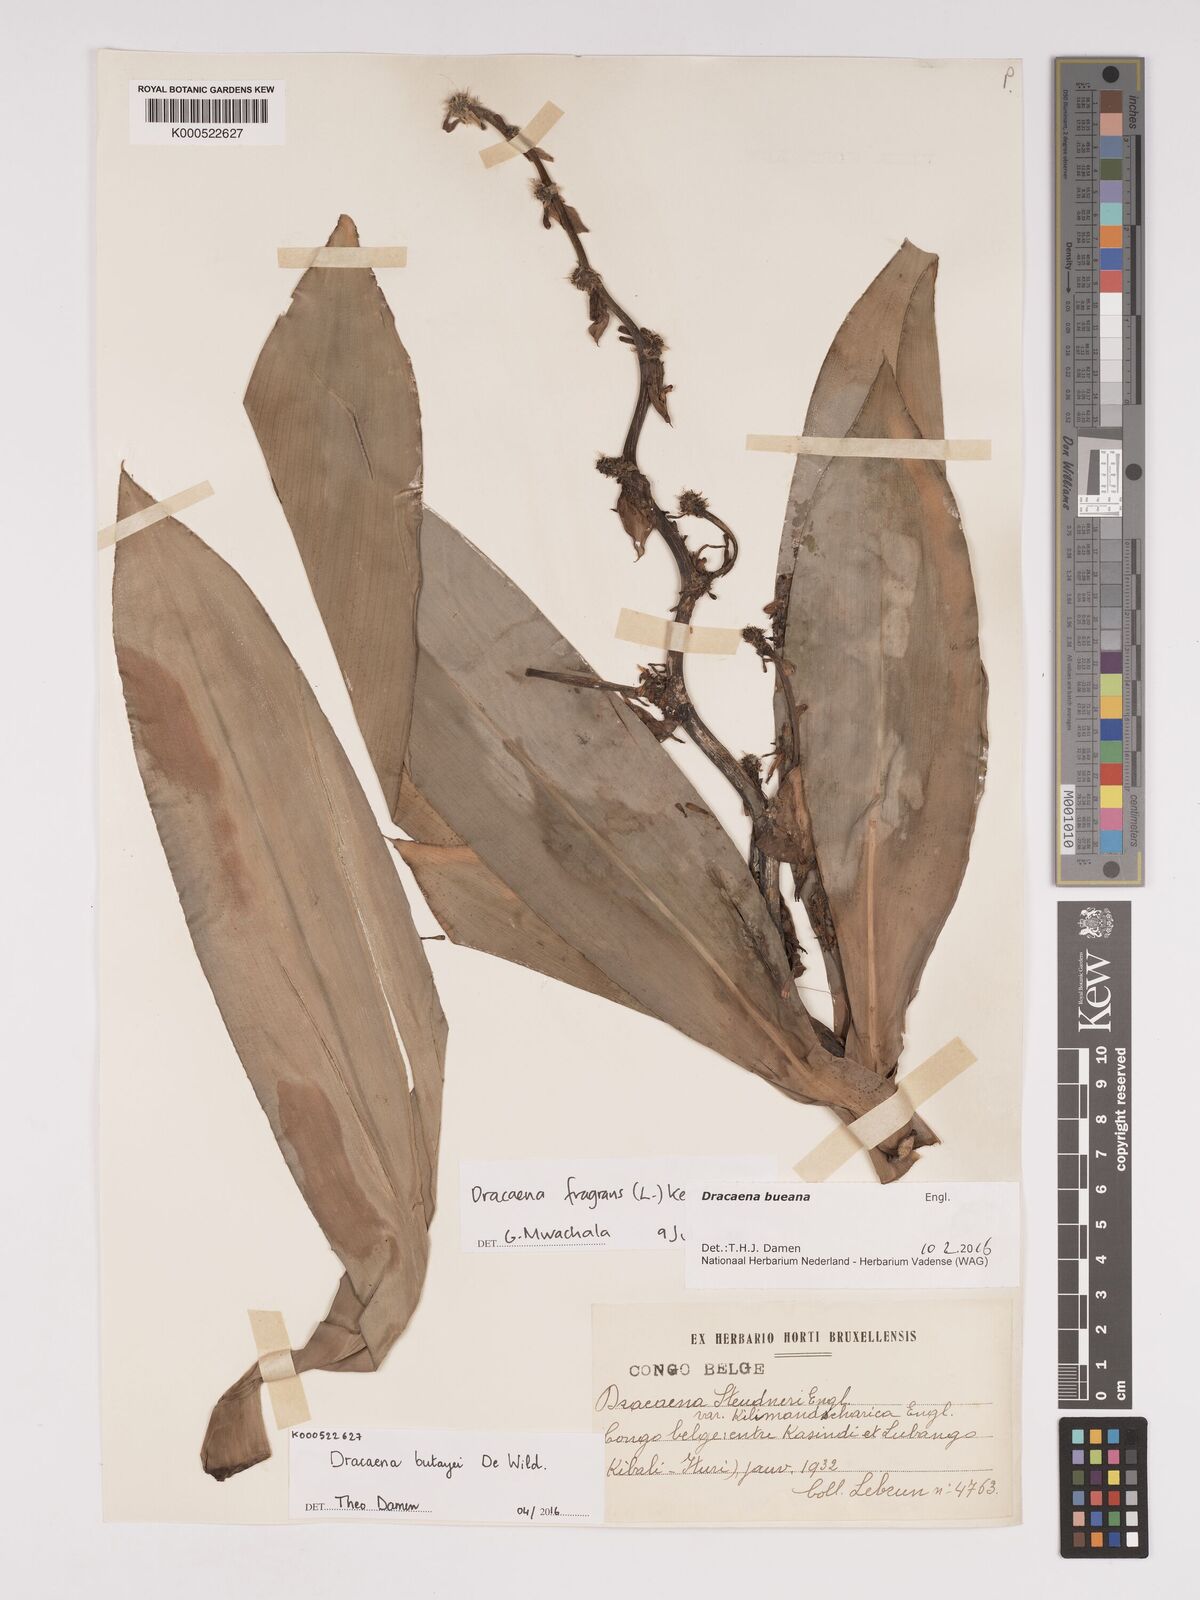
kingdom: Plantae
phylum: Tracheophyta
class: Liliopsida
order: Asparagales
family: Asparagaceae
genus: Dracaena
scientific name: Dracaena fragrans
